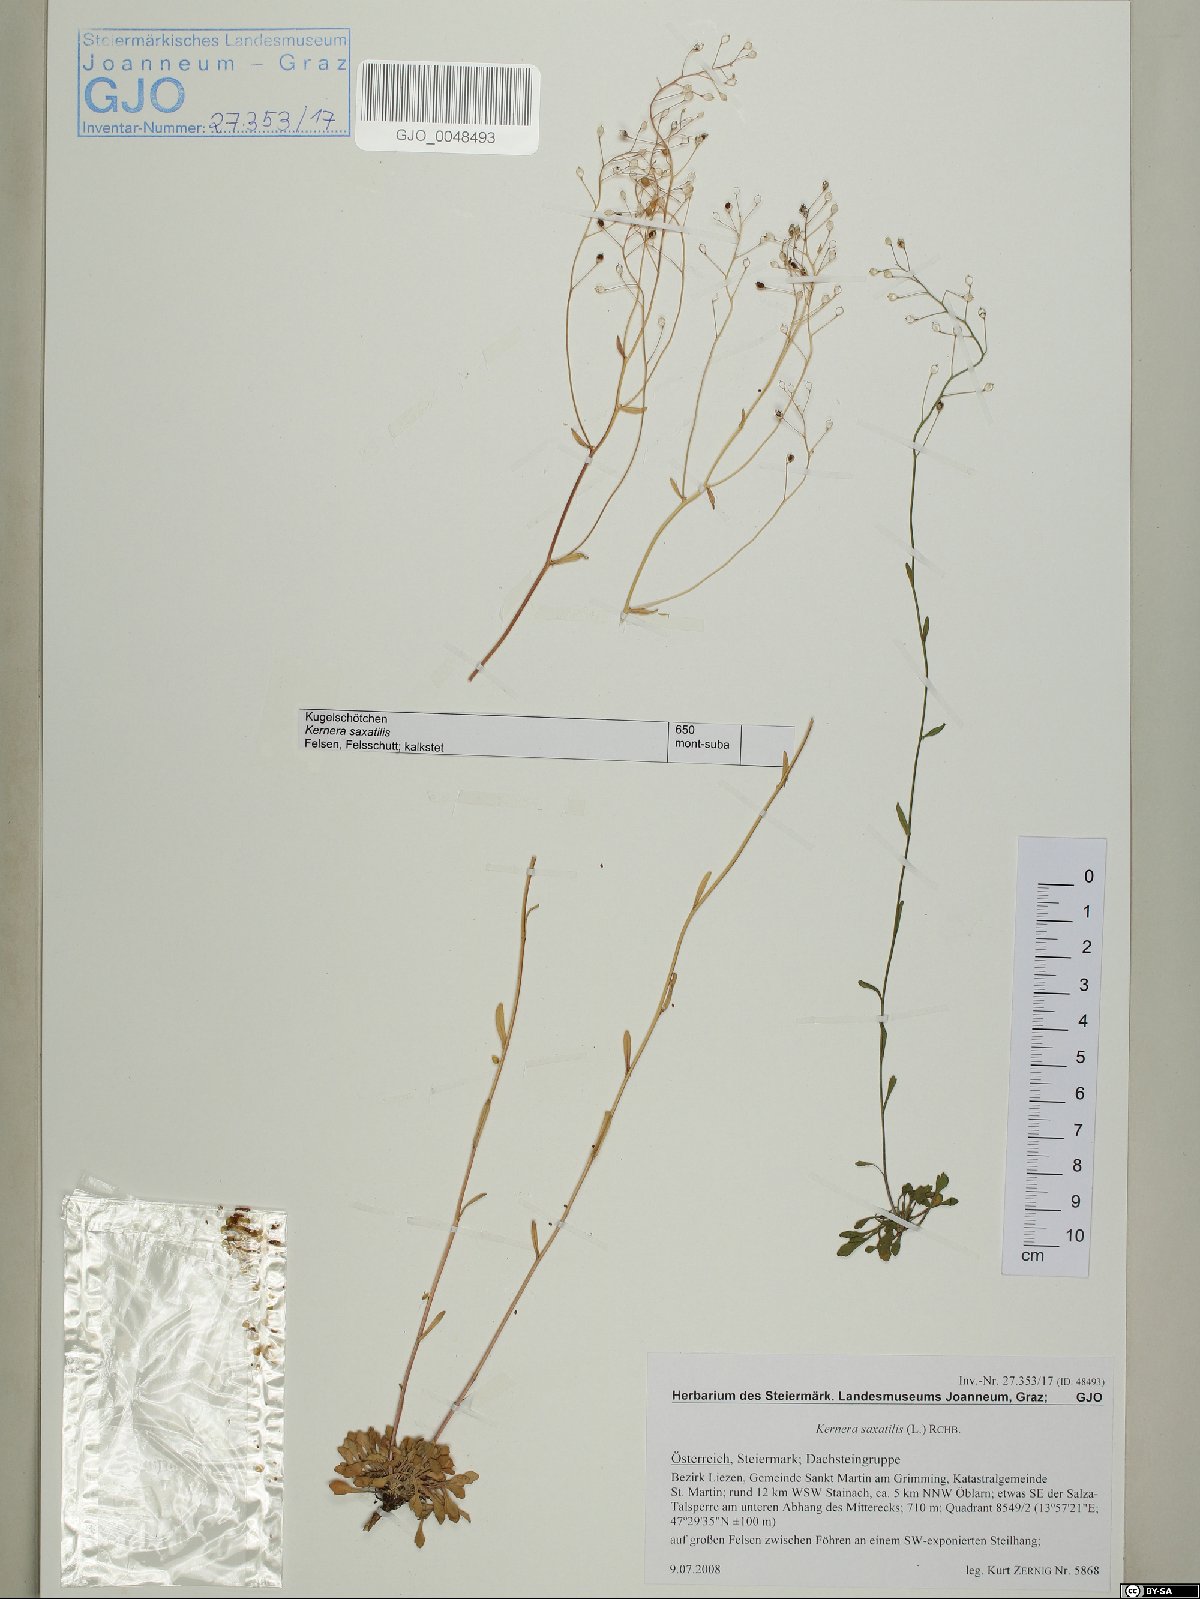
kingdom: Plantae
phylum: Tracheophyta
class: Magnoliopsida
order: Brassicales
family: Brassicaceae
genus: Kernera
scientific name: Kernera saxatilis
